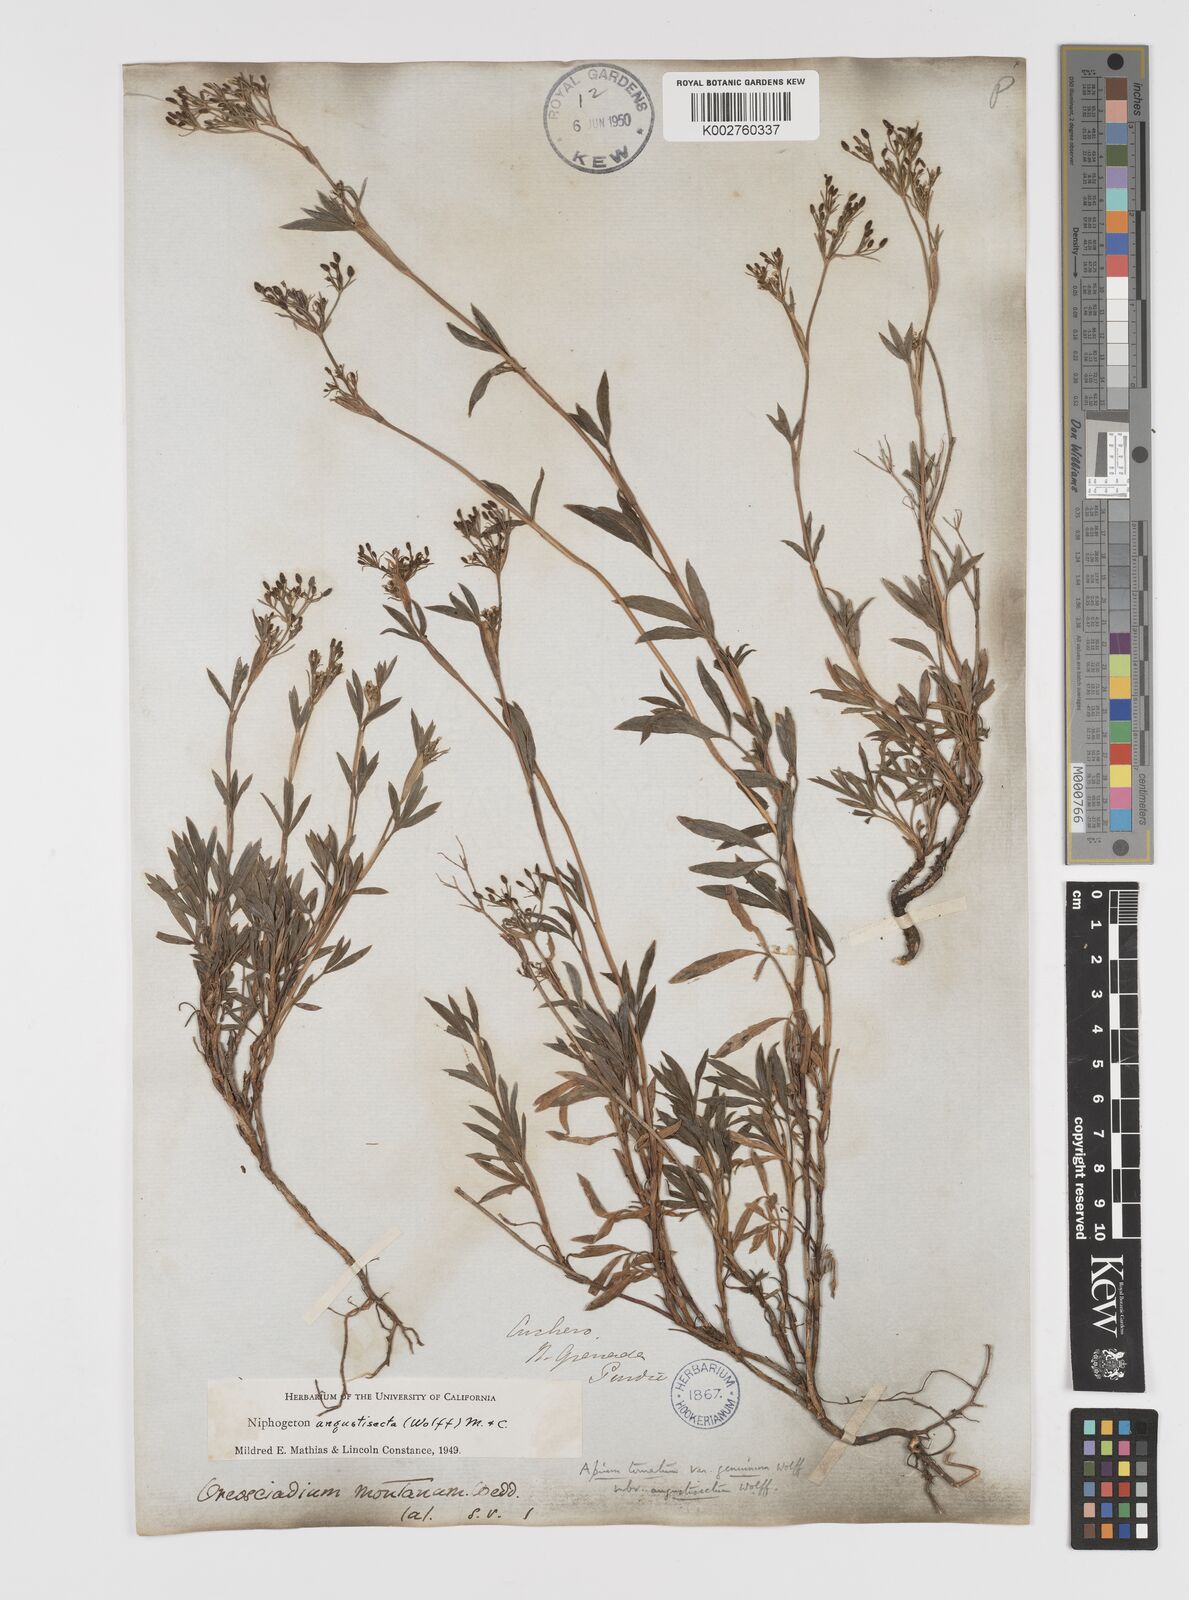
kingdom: Plantae
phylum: Tracheophyta
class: Magnoliopsida
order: Apiales
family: Apiaceae
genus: Niphogeton
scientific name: Niphogeton chirripoi
